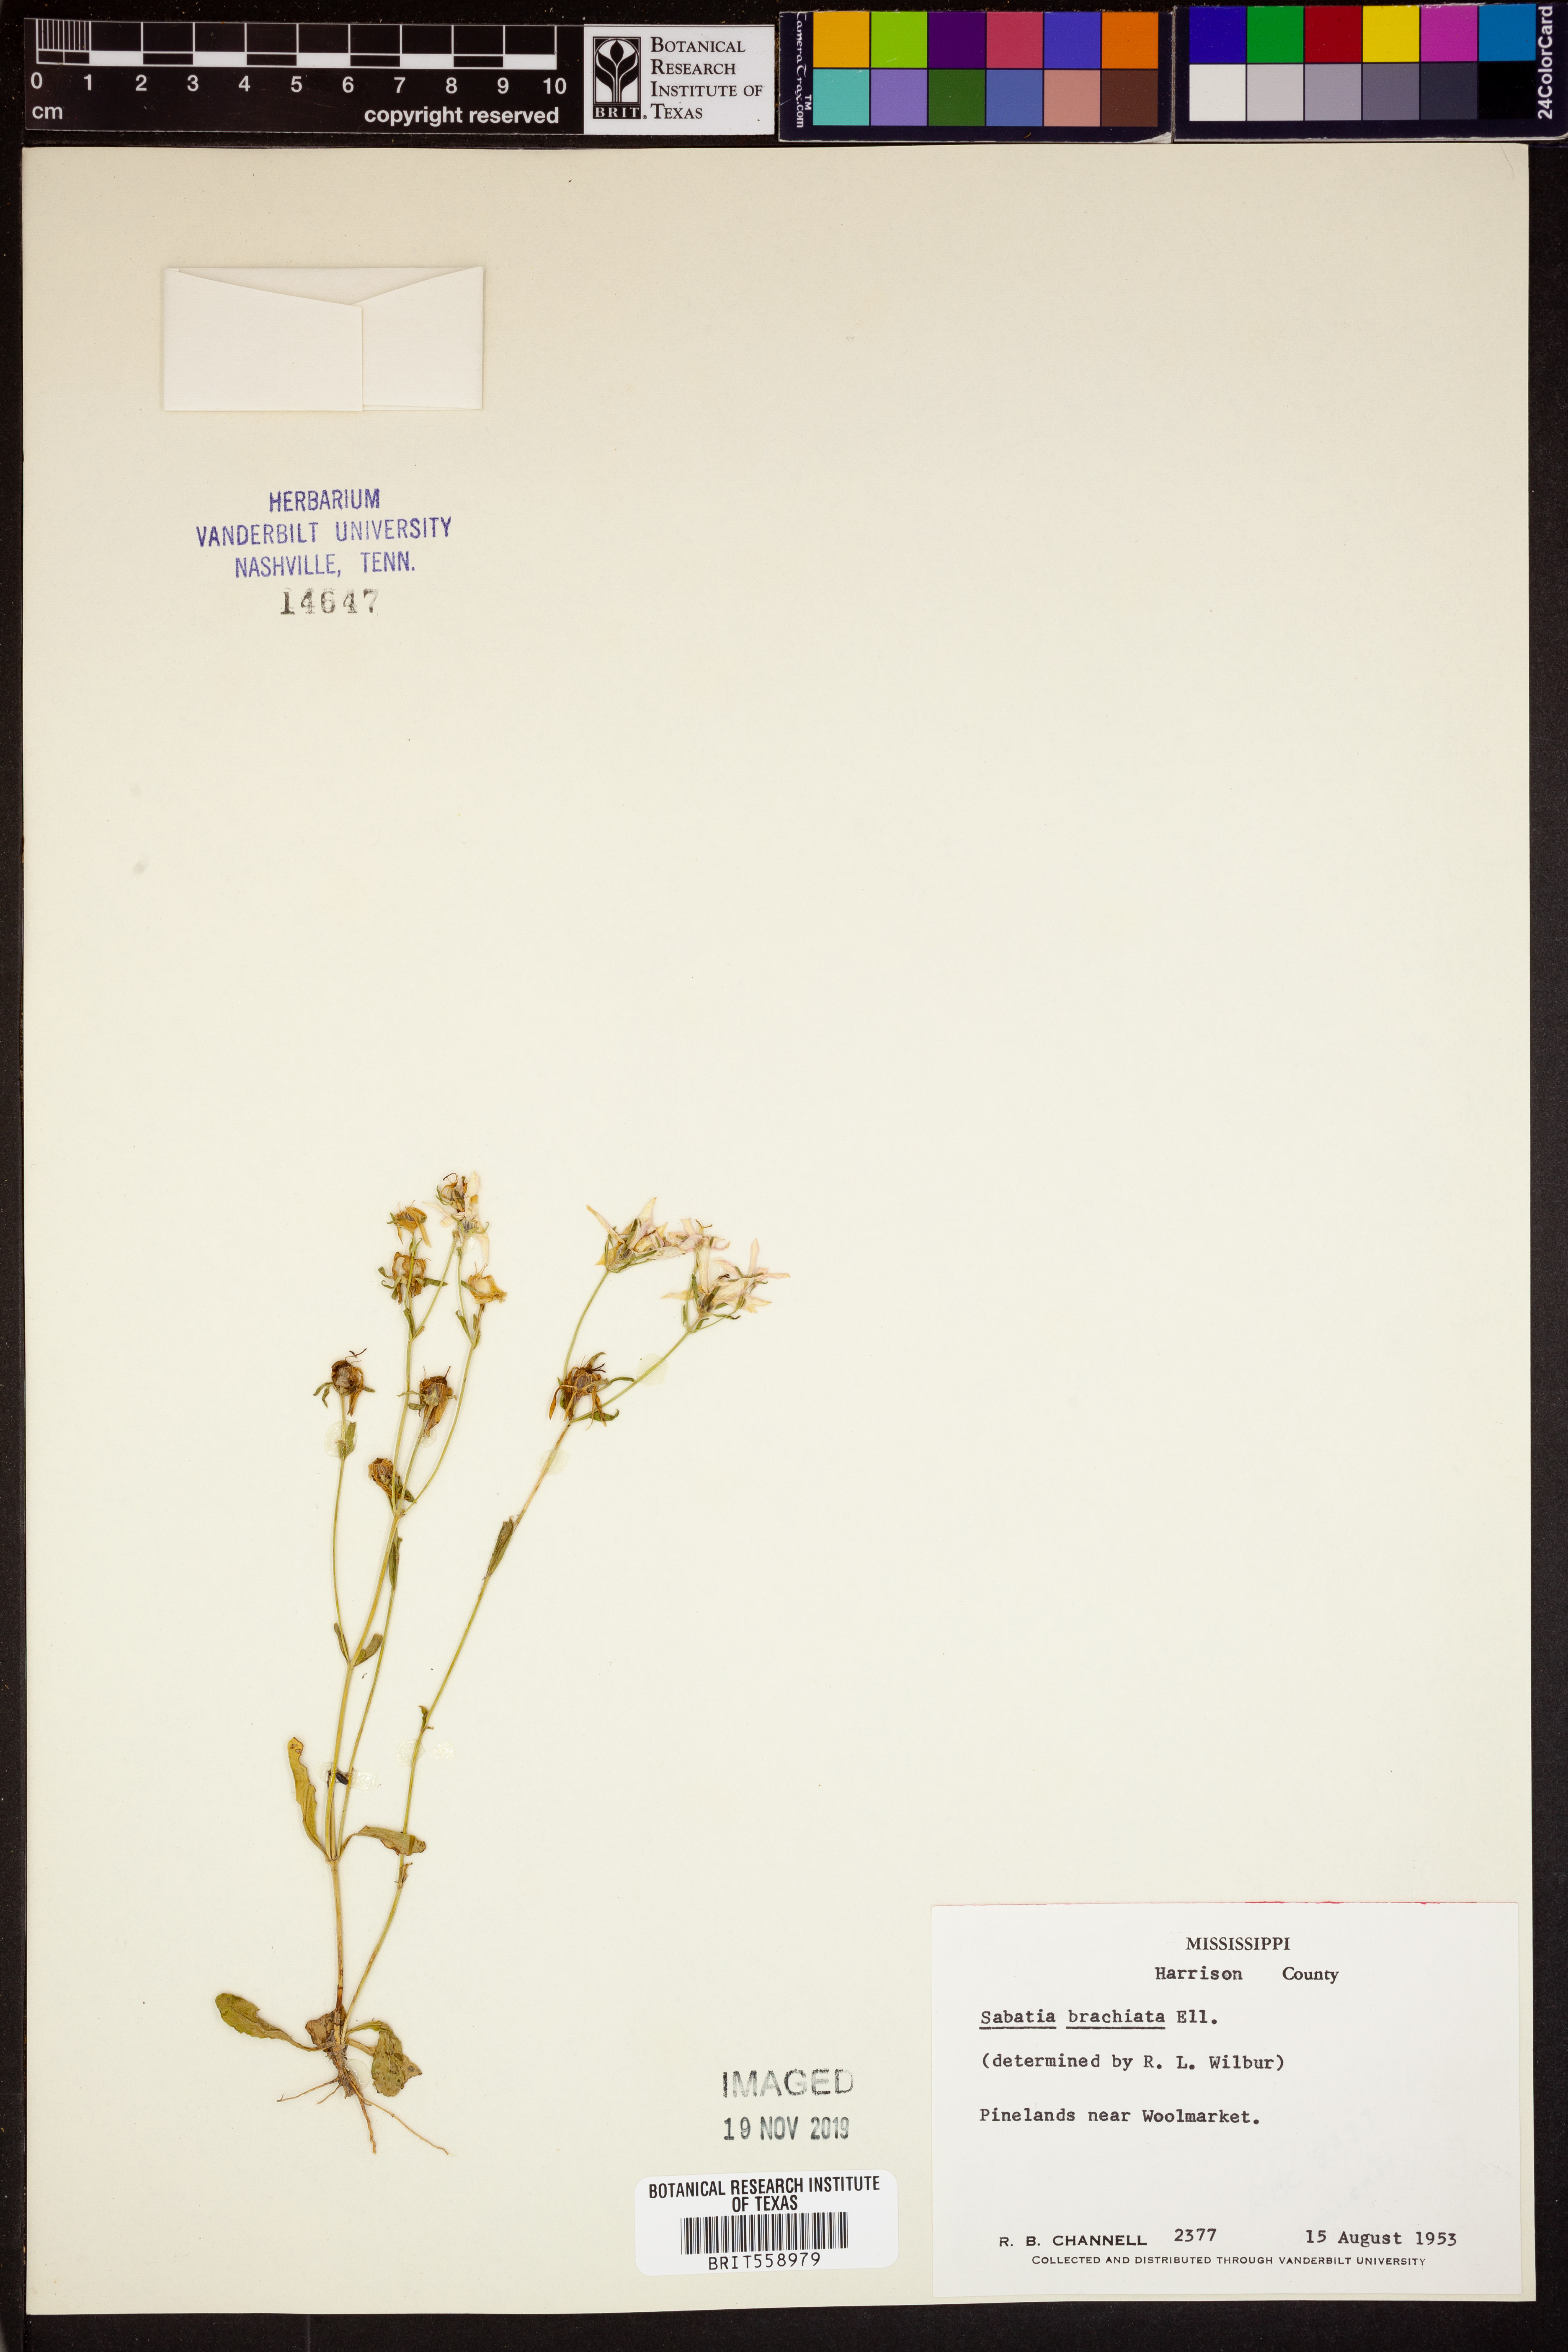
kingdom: Plantae
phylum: Tracheophyta
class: Magnoliopsida
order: Gentianales
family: Gentianaceae
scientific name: Gentianaceae
